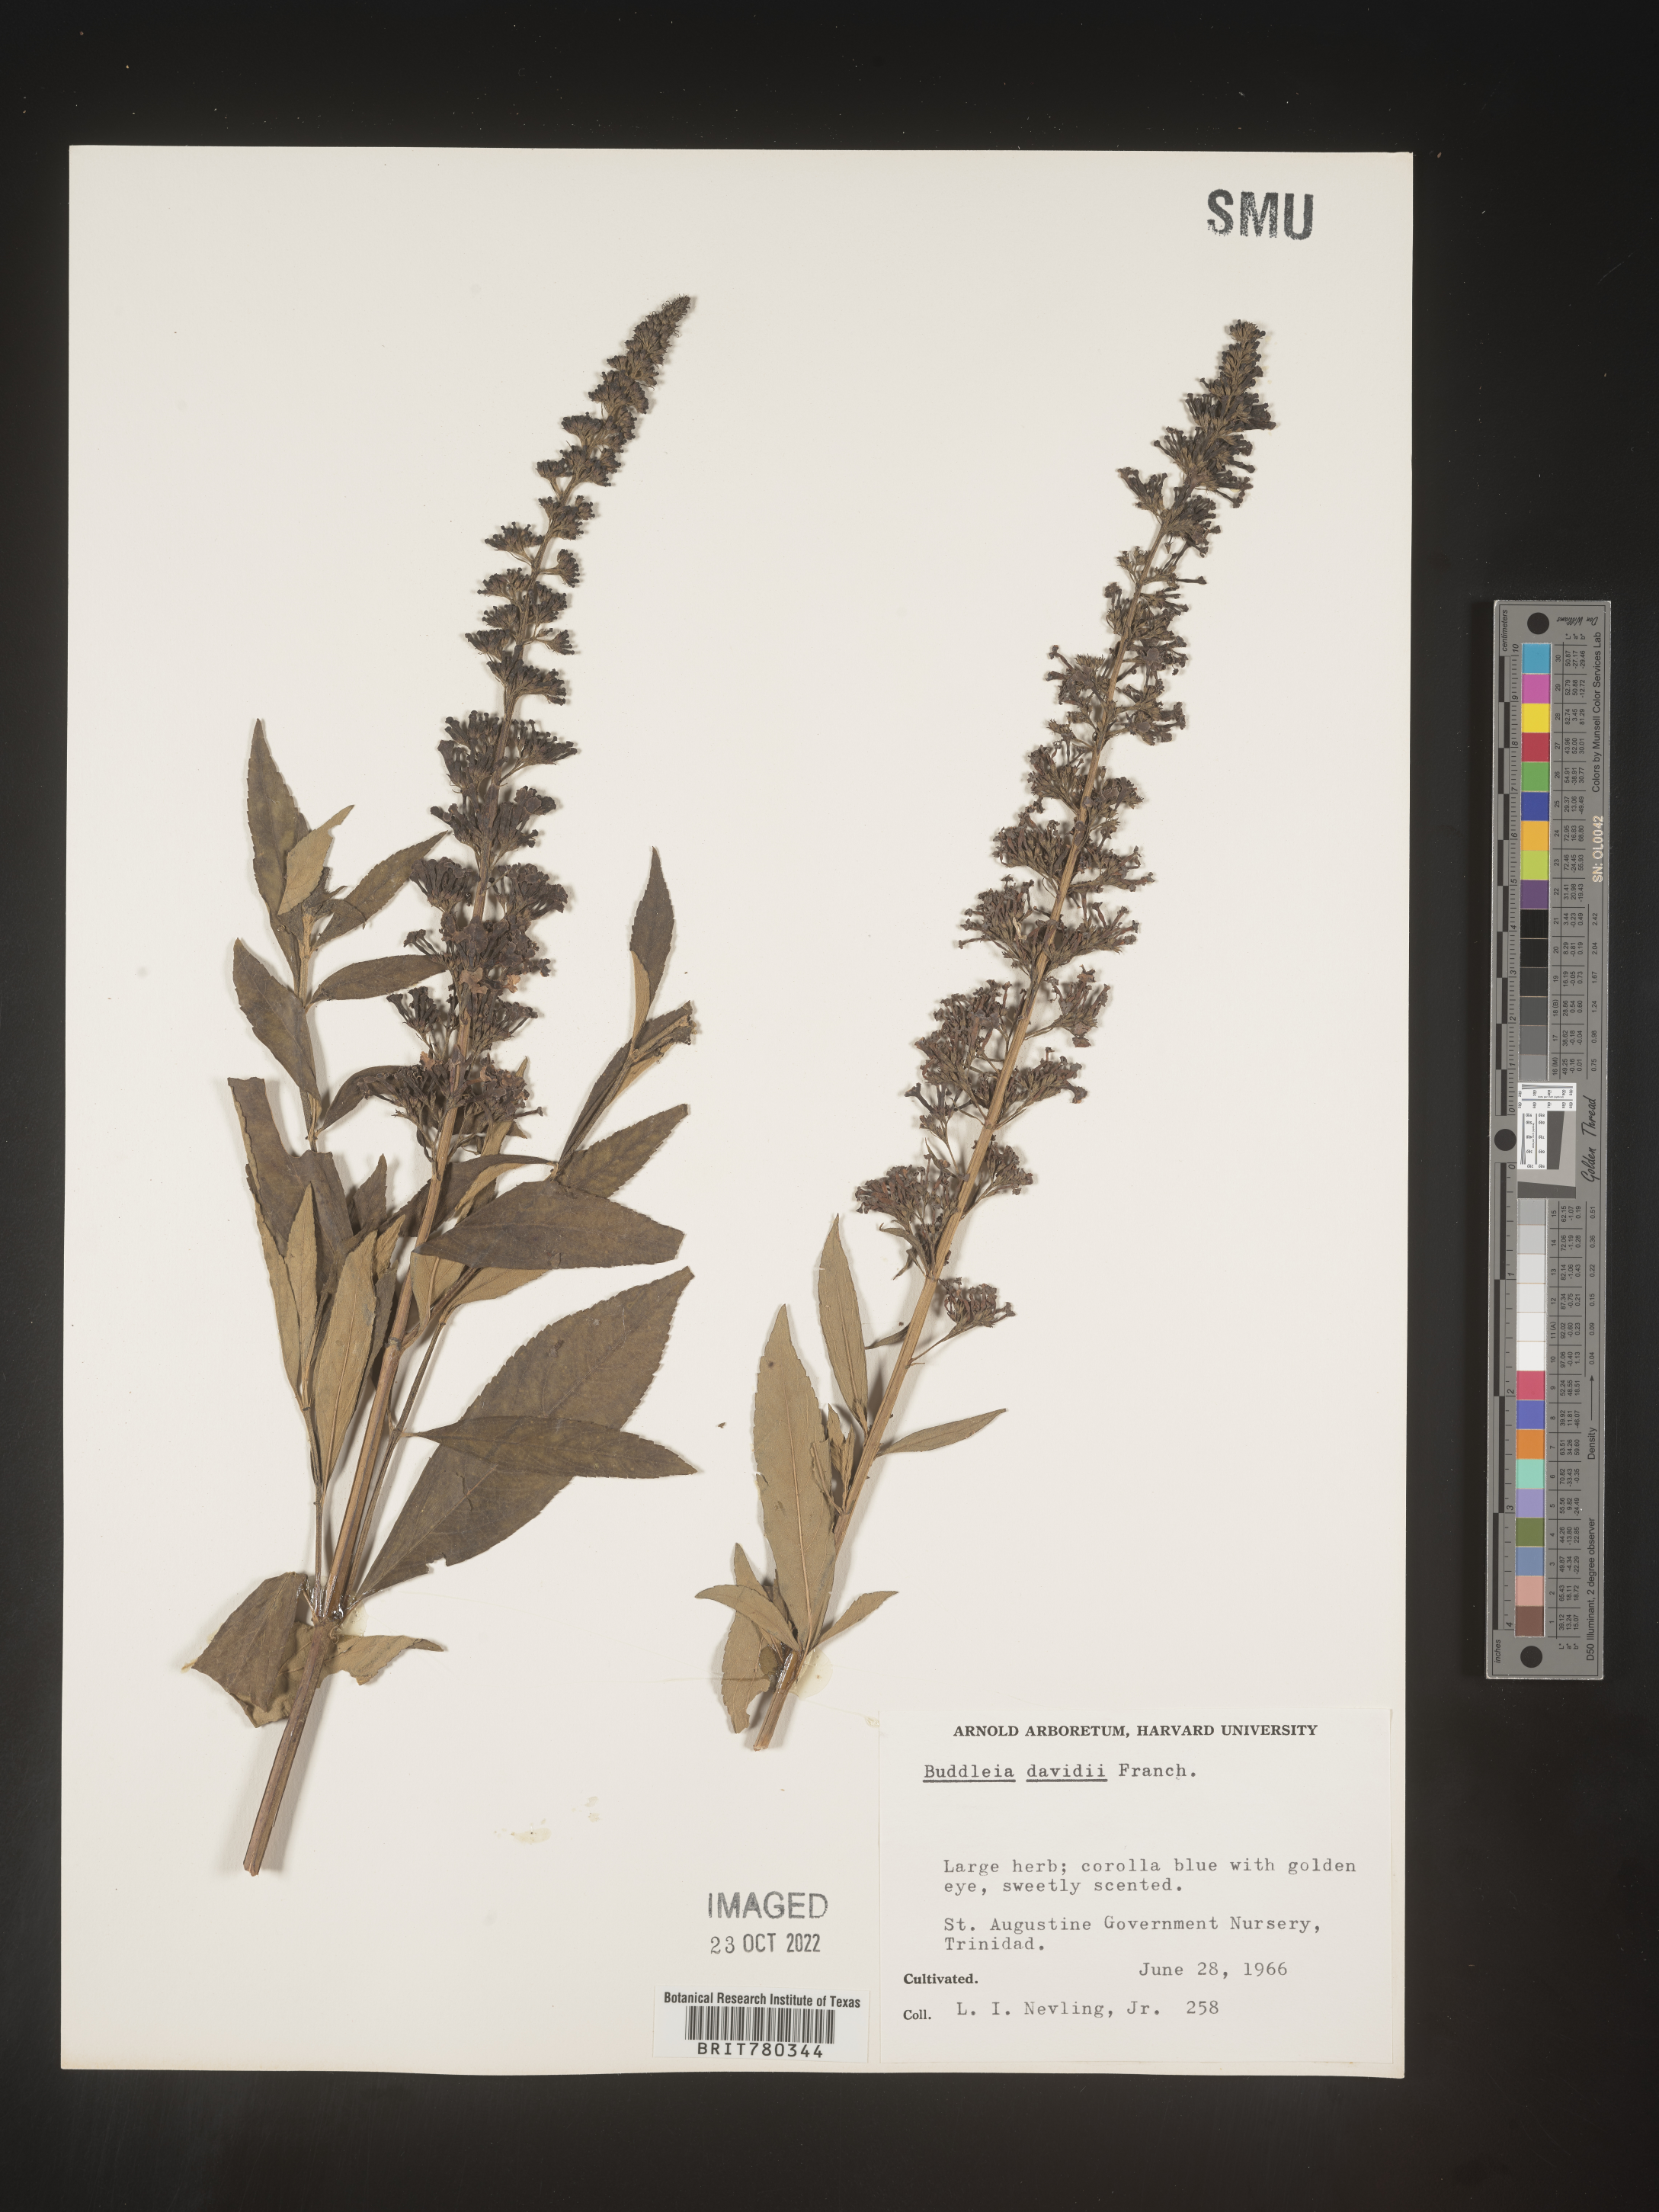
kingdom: Plantae
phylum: Tracheophyta
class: Magnoliopsida
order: Lamiales
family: Scrophulariaceae
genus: Buddleja
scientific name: Buddleja
